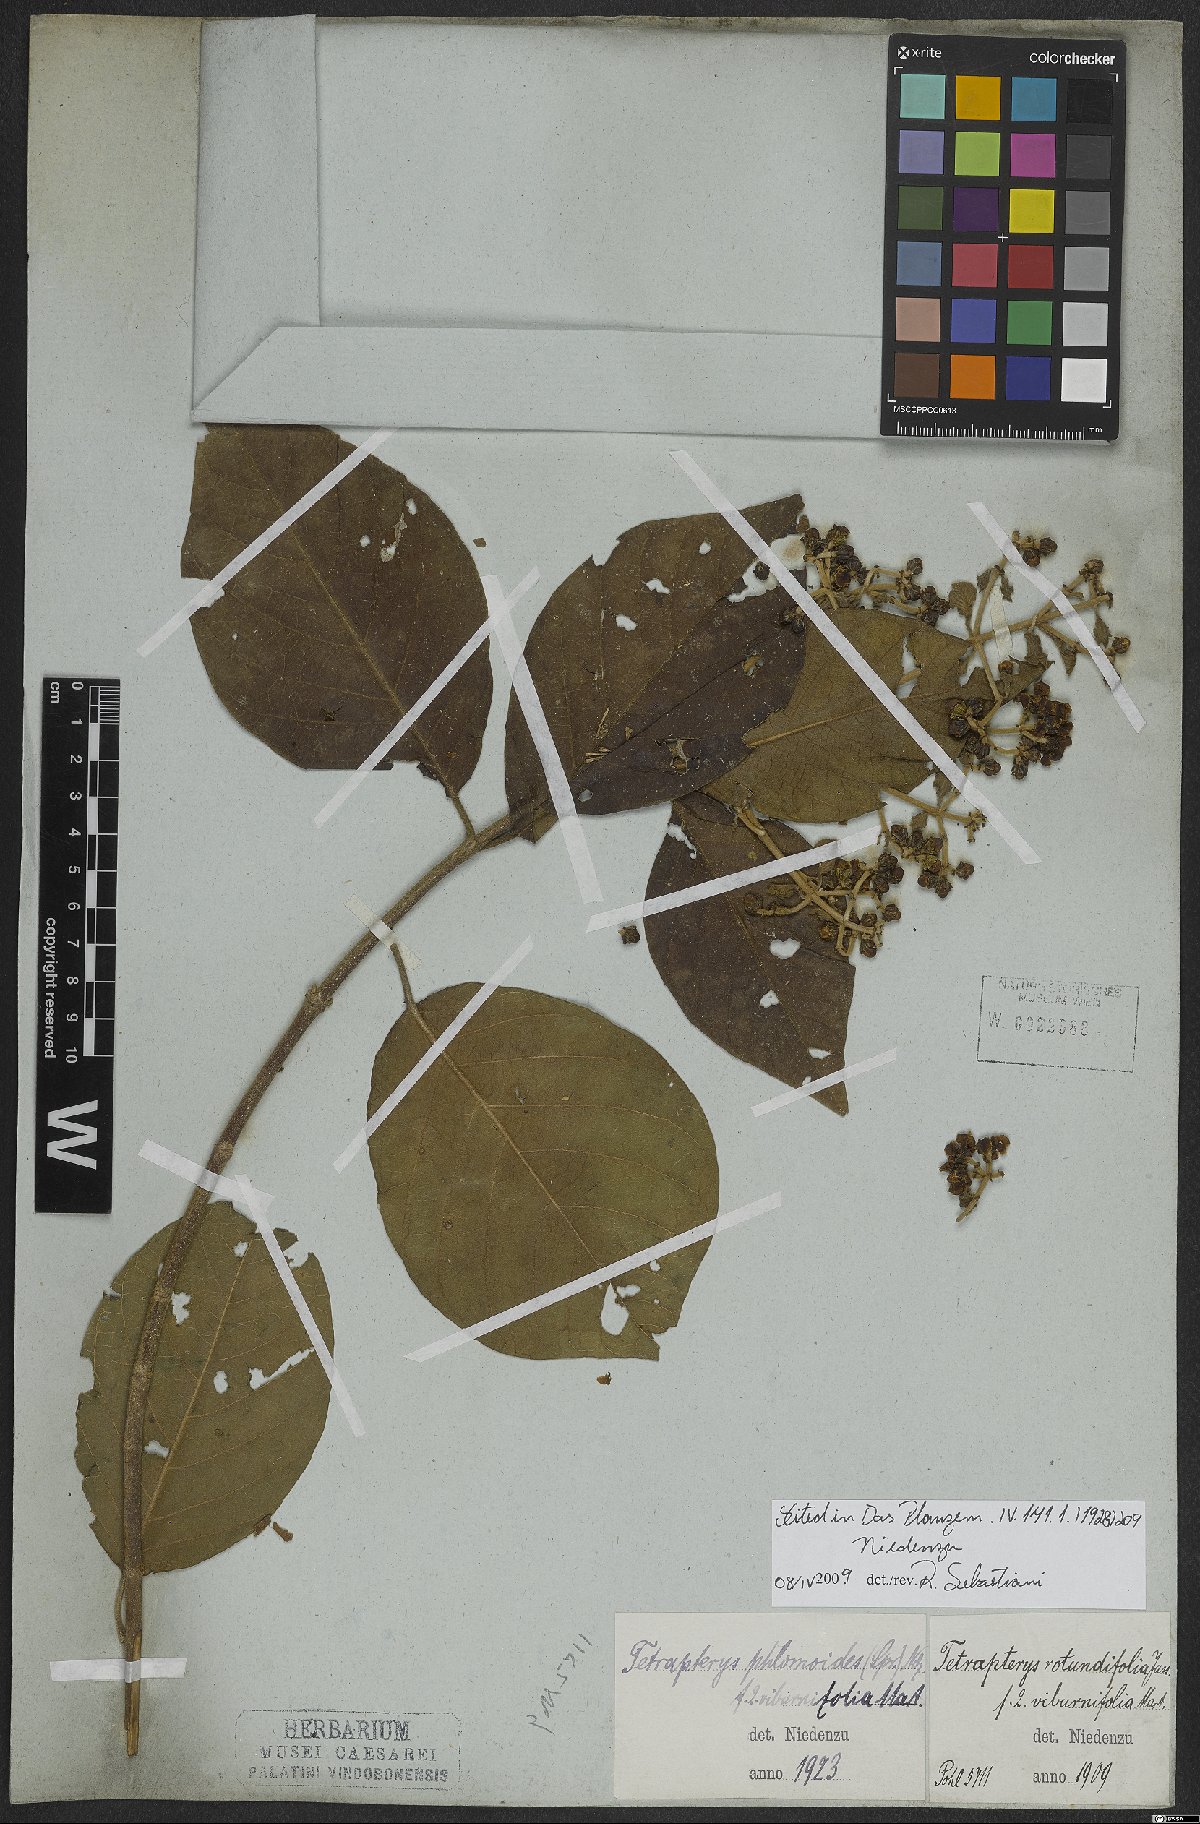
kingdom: Plantae
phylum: Tracheophyta
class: Magnoliopsida
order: Malpighiales
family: Malpighiaceae
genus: Tetrapterys
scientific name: Tetrapterys phlomoides
